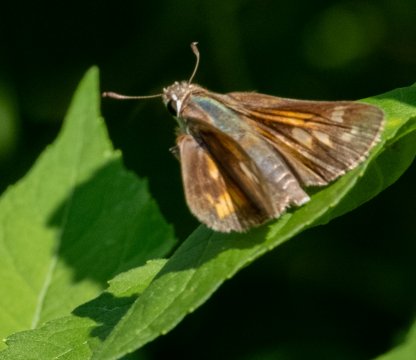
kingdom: Animalia
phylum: Arthropoda
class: Insecta
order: Lepidoptera
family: Hesperiidae
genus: Atalopedes
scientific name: Atalopedes campestris
